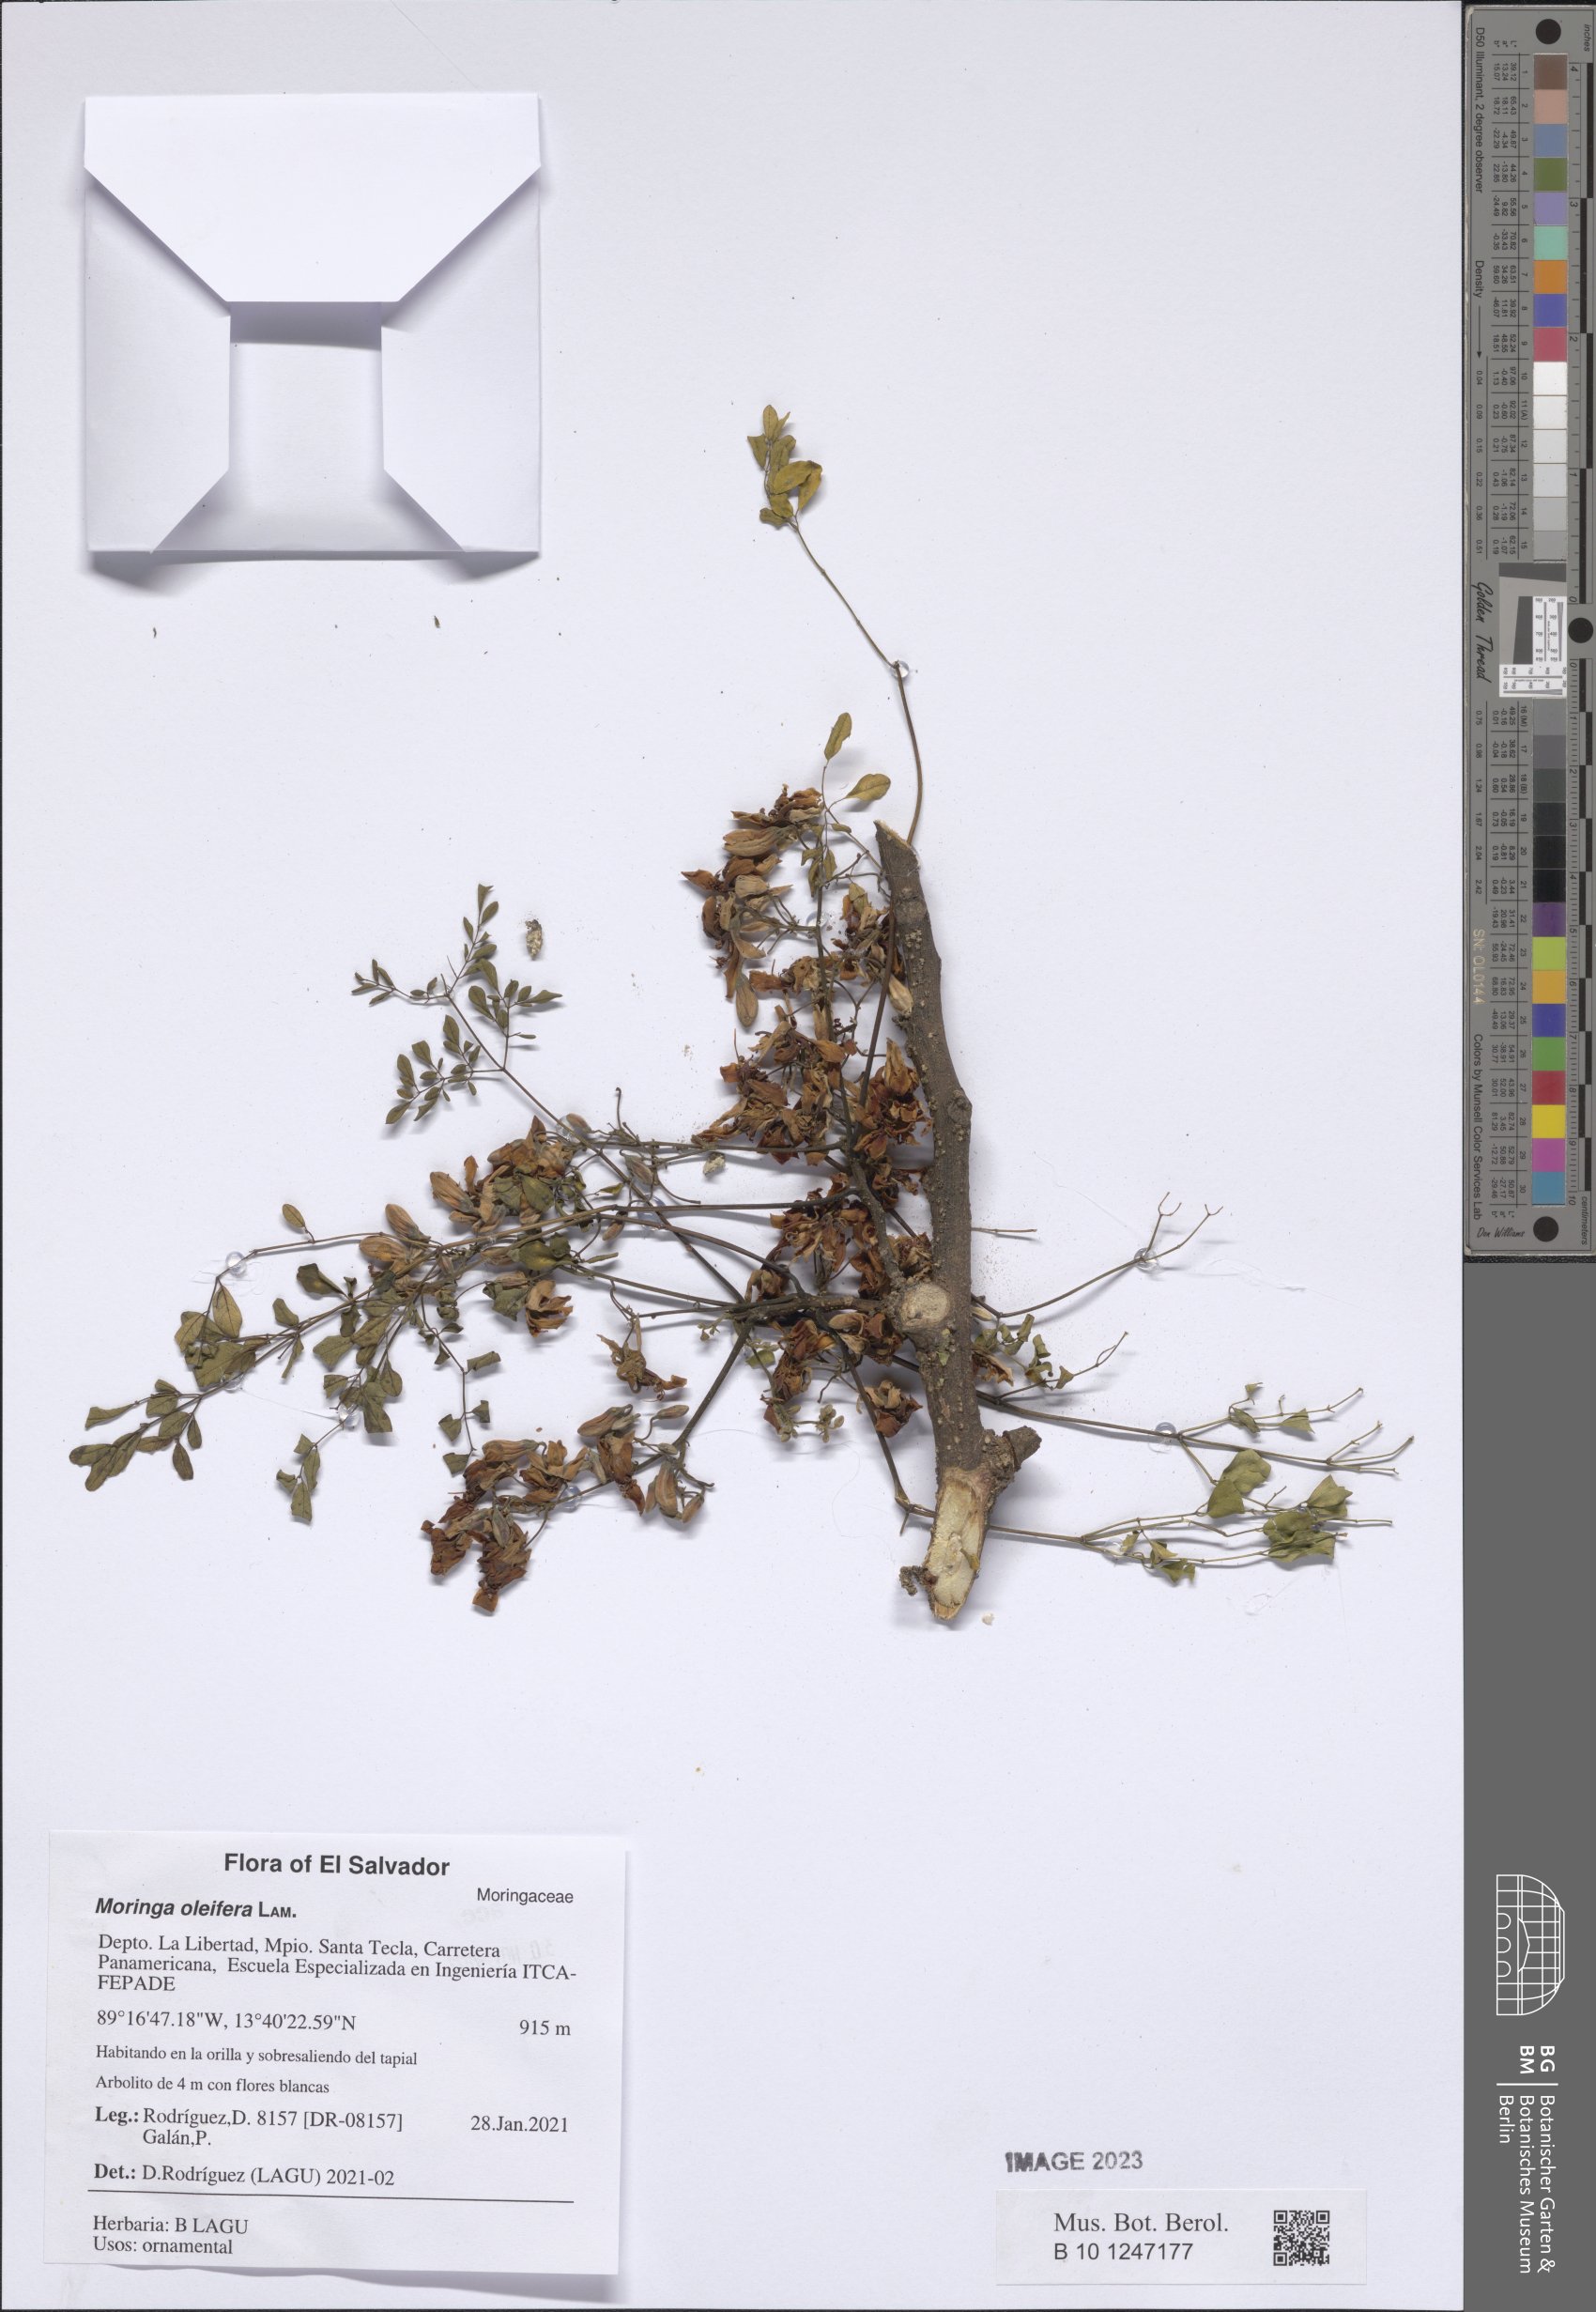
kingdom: Plantae
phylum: Tracheophyta
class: Magnoliopsida
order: Brassicales
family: Moringaceae
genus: Moringa
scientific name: Moringa oleifera
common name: Horseradish-tree
